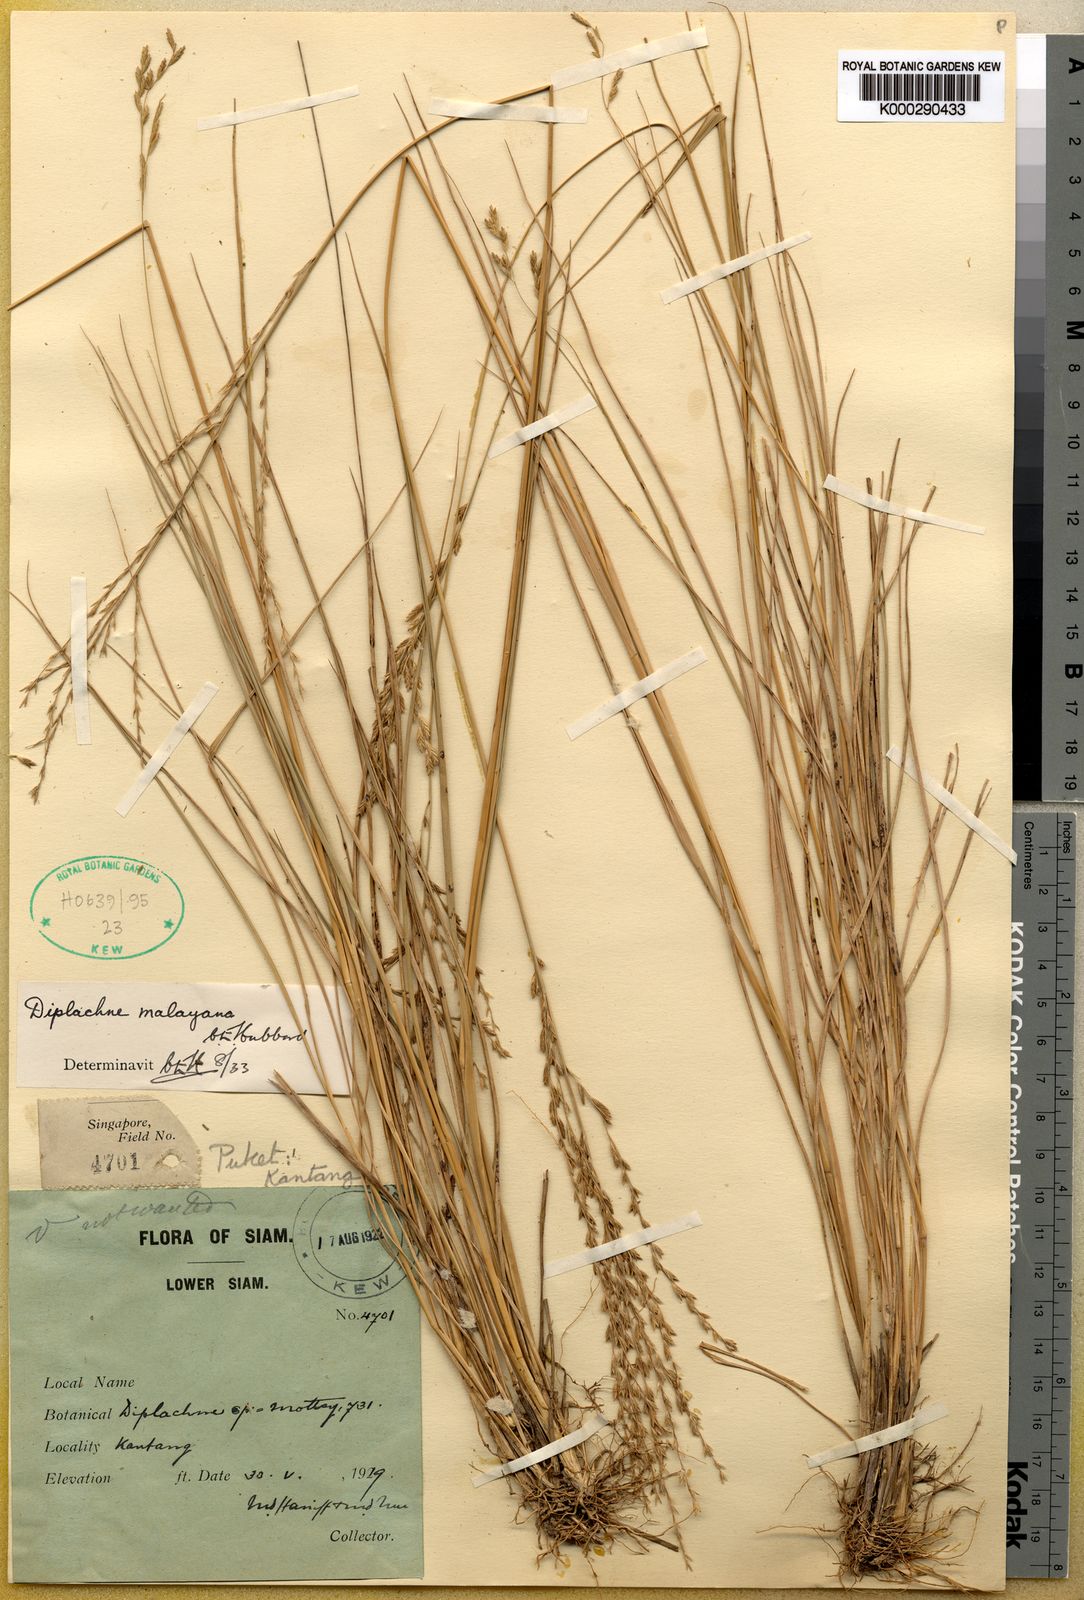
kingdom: Plantae
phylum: Tracheophyta
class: Liliopsida
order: Poales
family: Poaceae
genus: Leptochloa
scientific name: Leptochloa malayana
